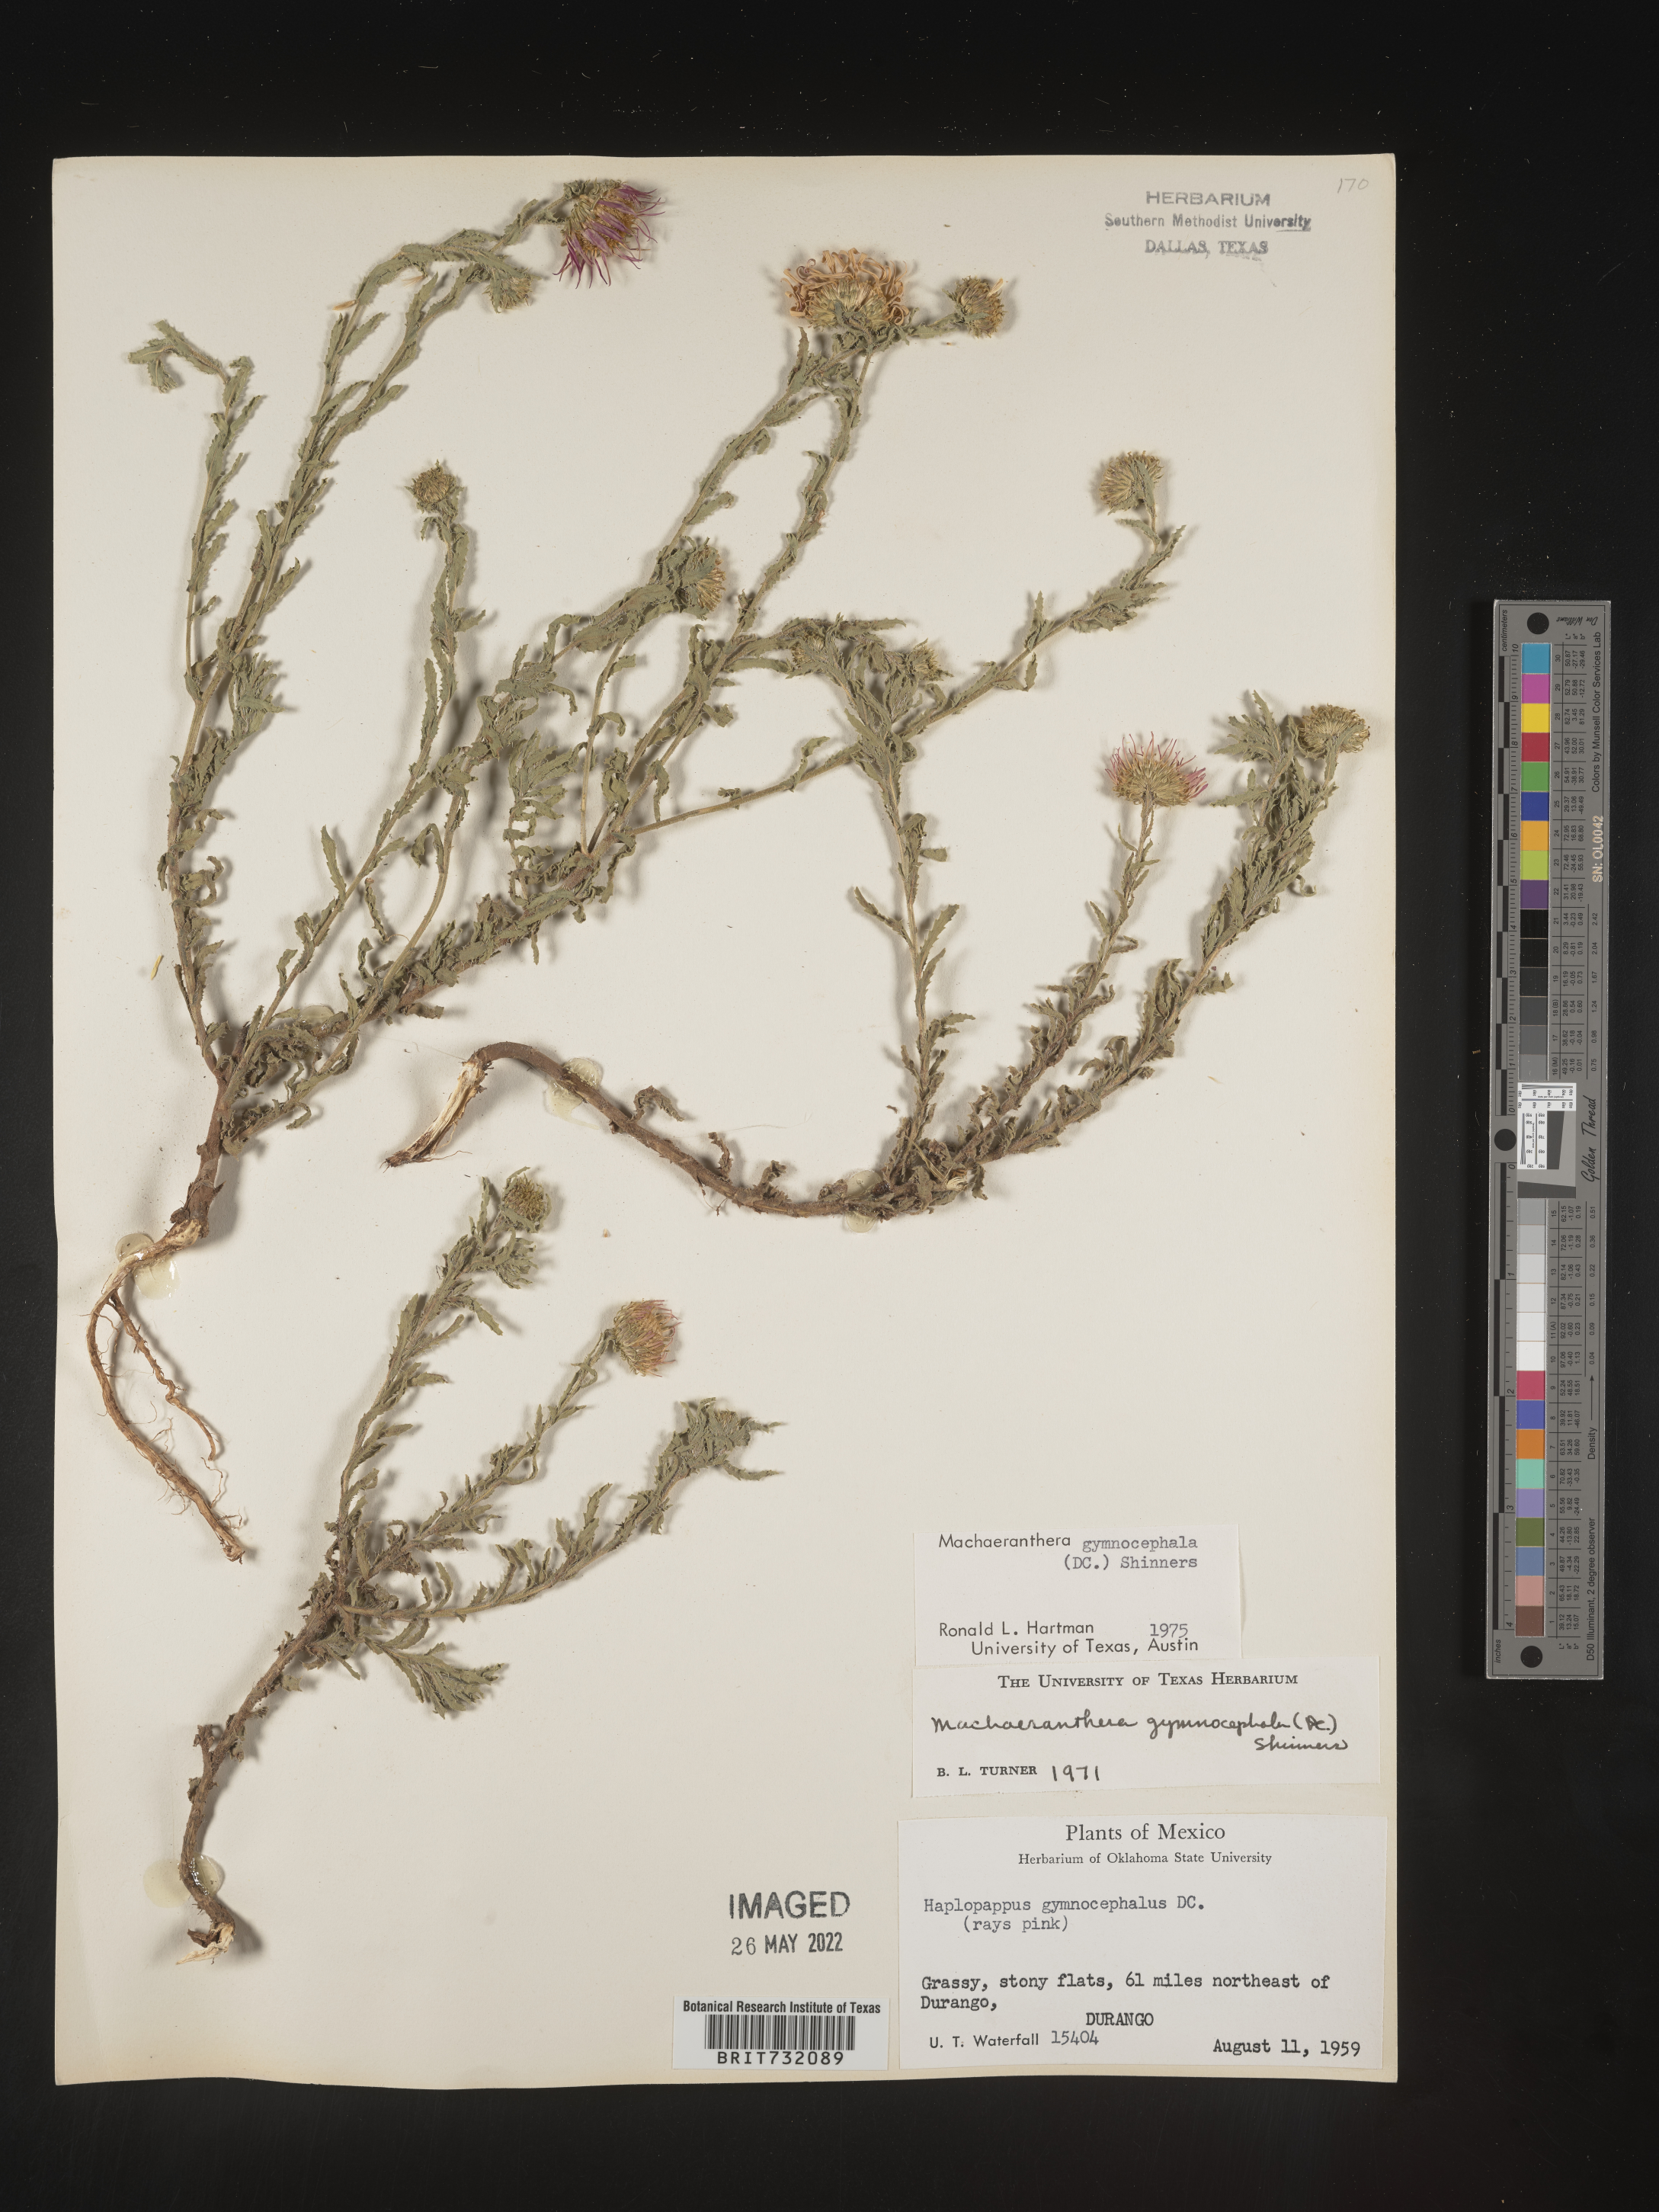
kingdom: Plantae
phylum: Tracheophyta
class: Magnoliopsida
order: Asterales
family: Asteraceae
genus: Xanthisma
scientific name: Xanthisma blephariphyllum
